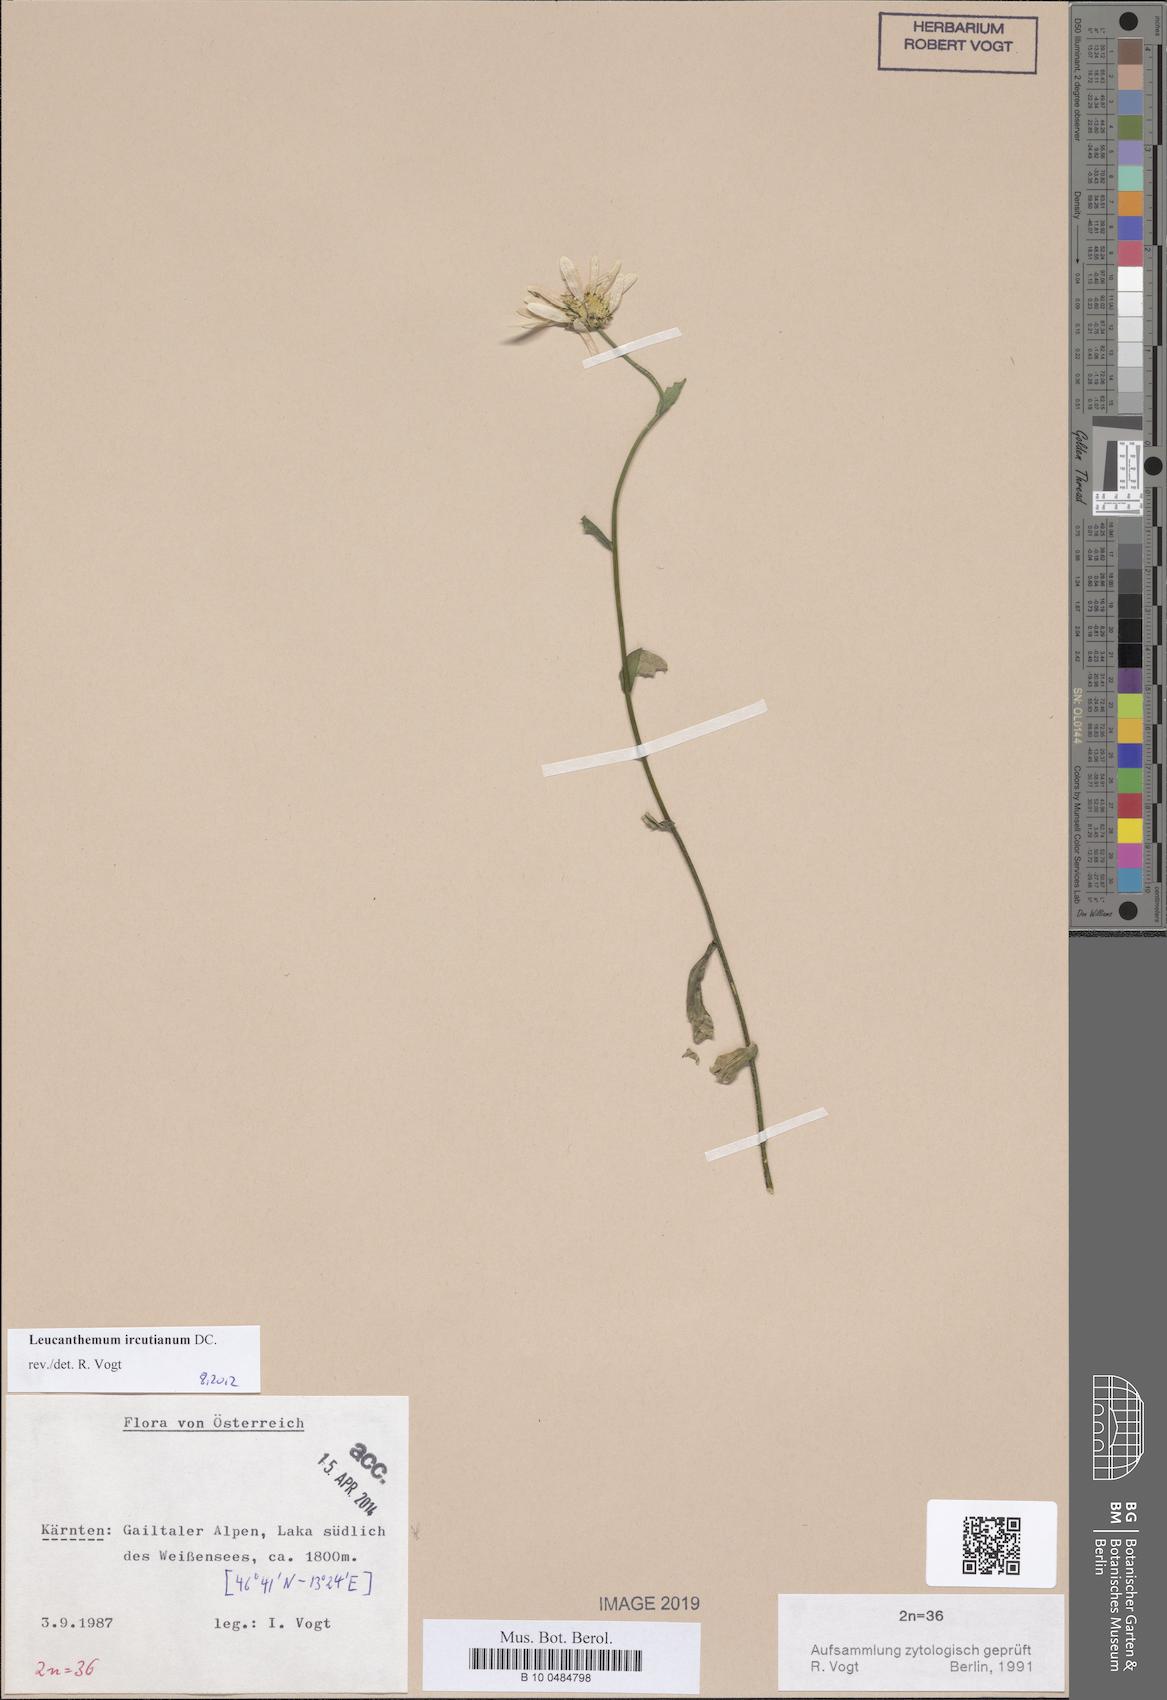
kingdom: Plantae
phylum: Tracheophyta
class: Magnoliopsida
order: Asterales
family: Asteraceae
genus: Leucanthemum
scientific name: Leucanthemum ircutianum
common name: Daisy
